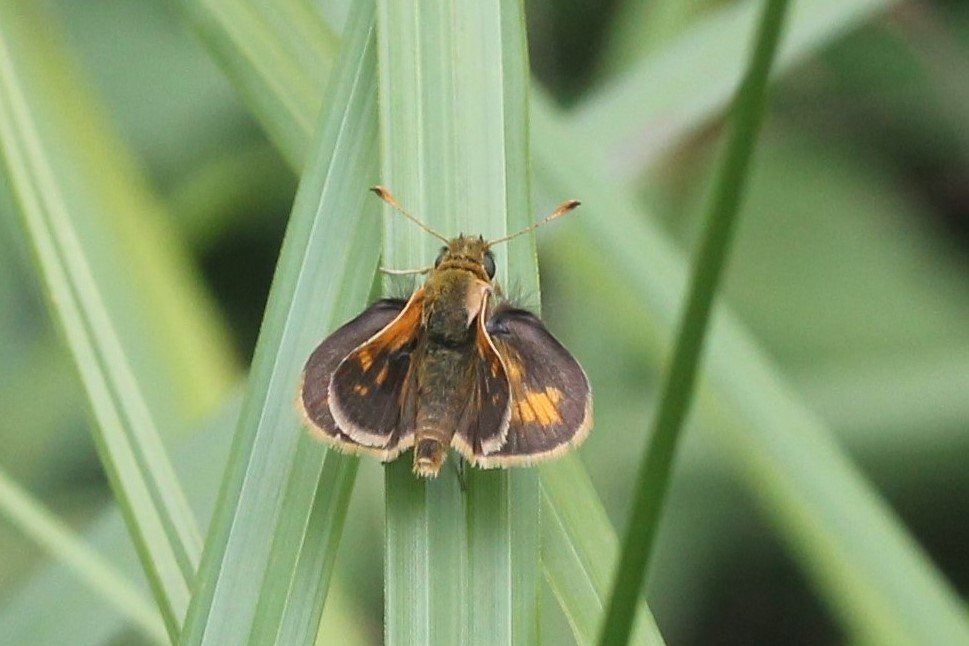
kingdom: Animalia
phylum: Arthropoda
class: Insecta
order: Lepidoptera
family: Hesperiidae
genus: Polites
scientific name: Polites coras
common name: Peck's Skipper
